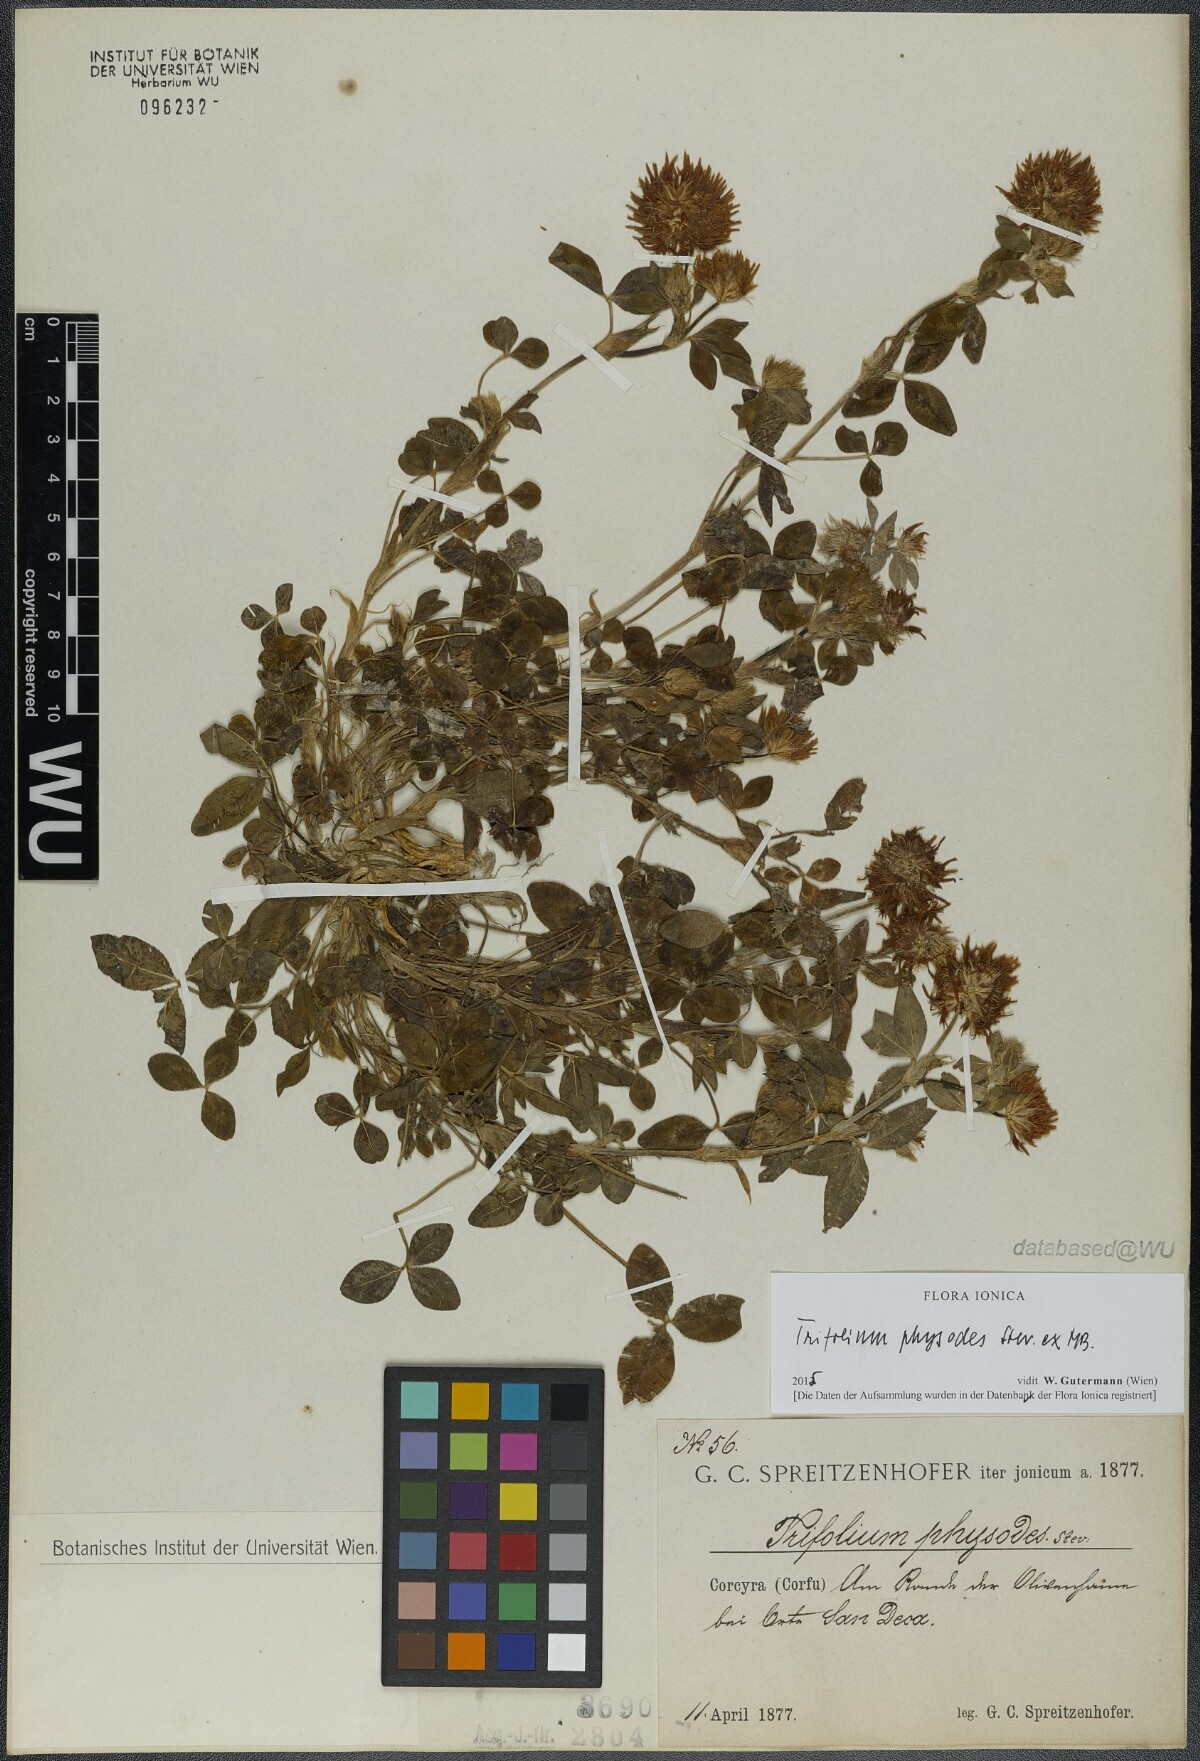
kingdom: Plantae
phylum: Tracheophyta
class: Magnoliopsida
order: Fabales
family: Fabaceae
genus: Trifolium
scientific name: Trifolium physodes
